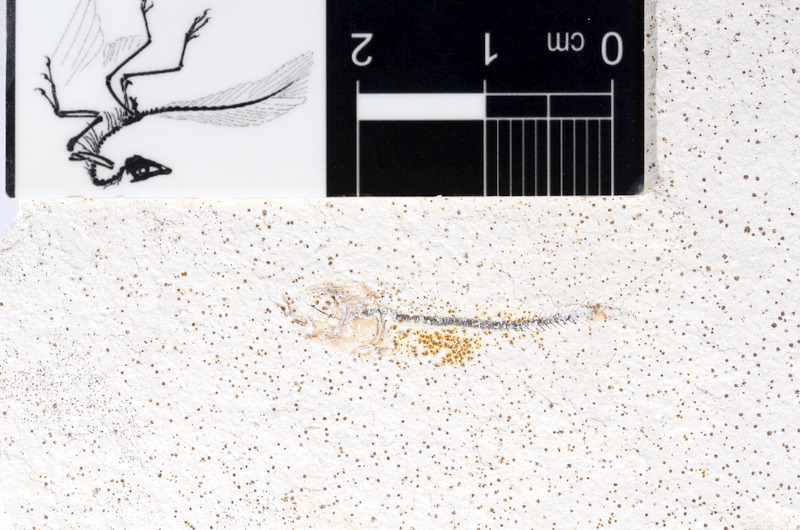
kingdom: Animalia
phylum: Chordata
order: Salmoniformes
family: Orthogonikleithridae
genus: Orthogonikleithrus
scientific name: Orthogonikleithrus hoelli
